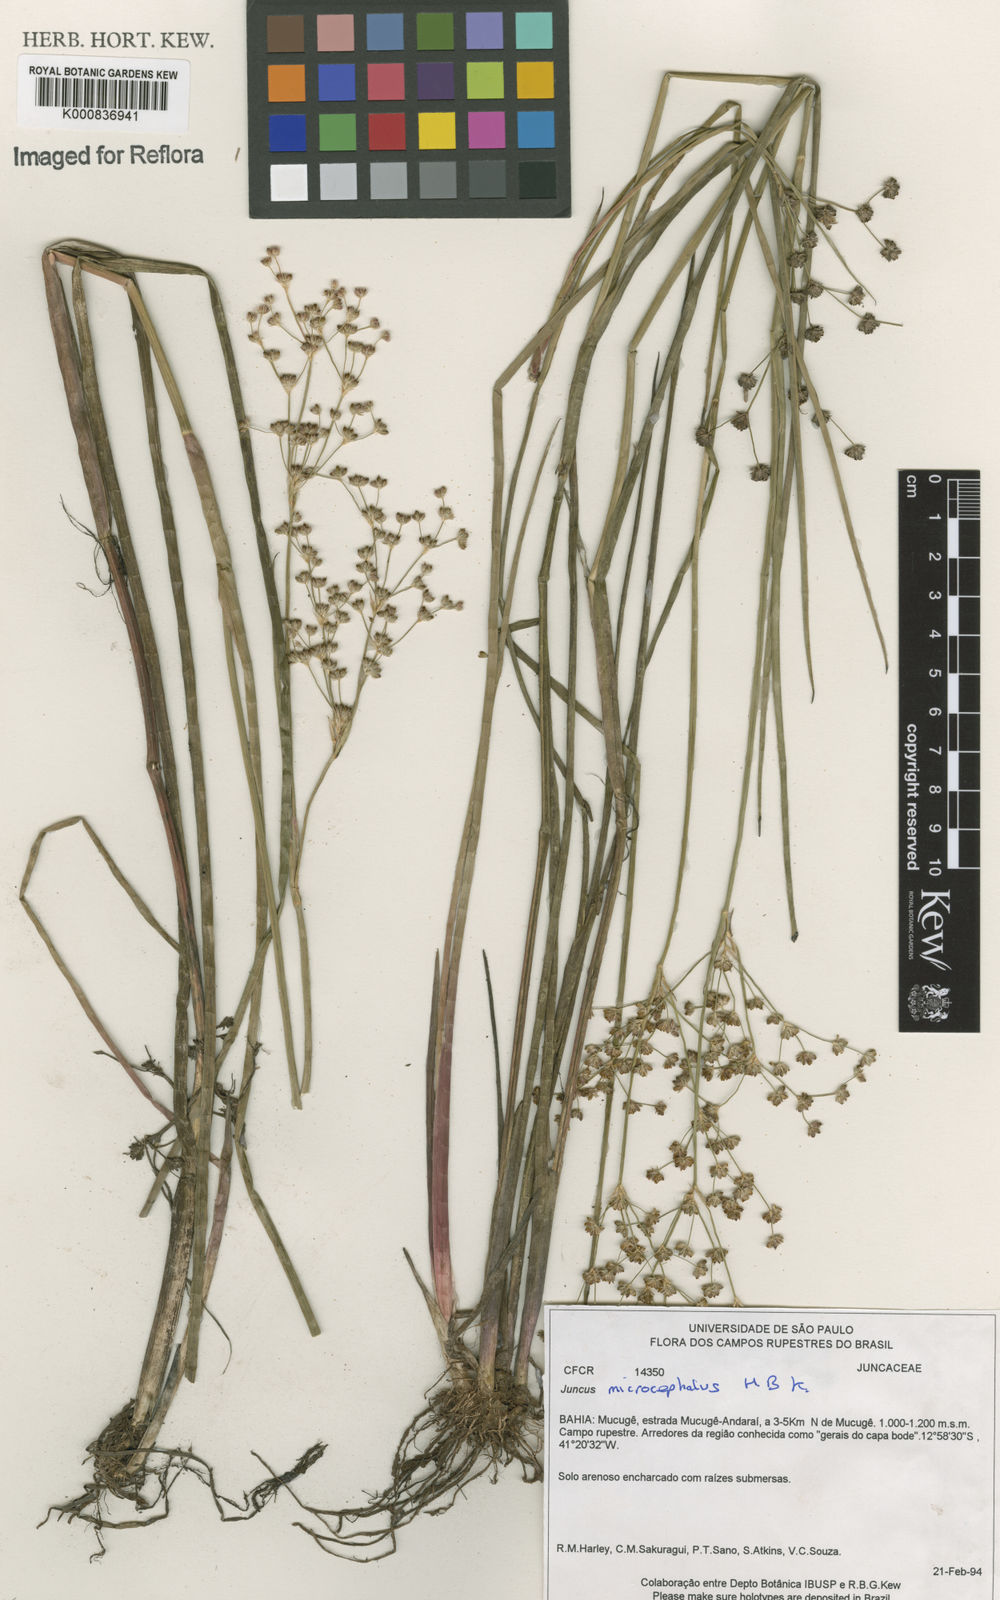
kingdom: Plantae
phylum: Tracheophyta
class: Liliopsida
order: Poales
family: Juncaceae
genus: Juncus
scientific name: Juncus microcephalus
